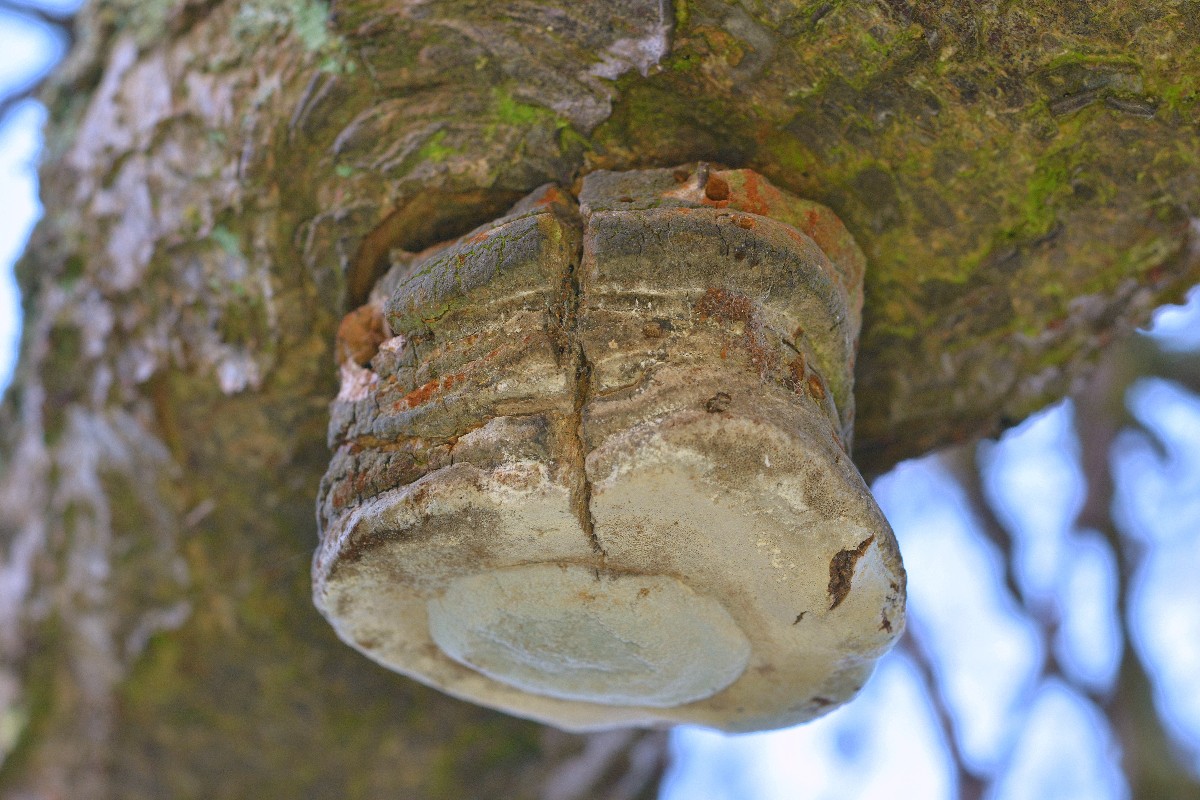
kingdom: Fungi
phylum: Basidiomycota
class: Agaricomycetes
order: Hymenochaetales
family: Hymenochaetaceae
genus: Phellinus
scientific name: Phellinus pomaceus
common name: blomme-ildporesvamp
